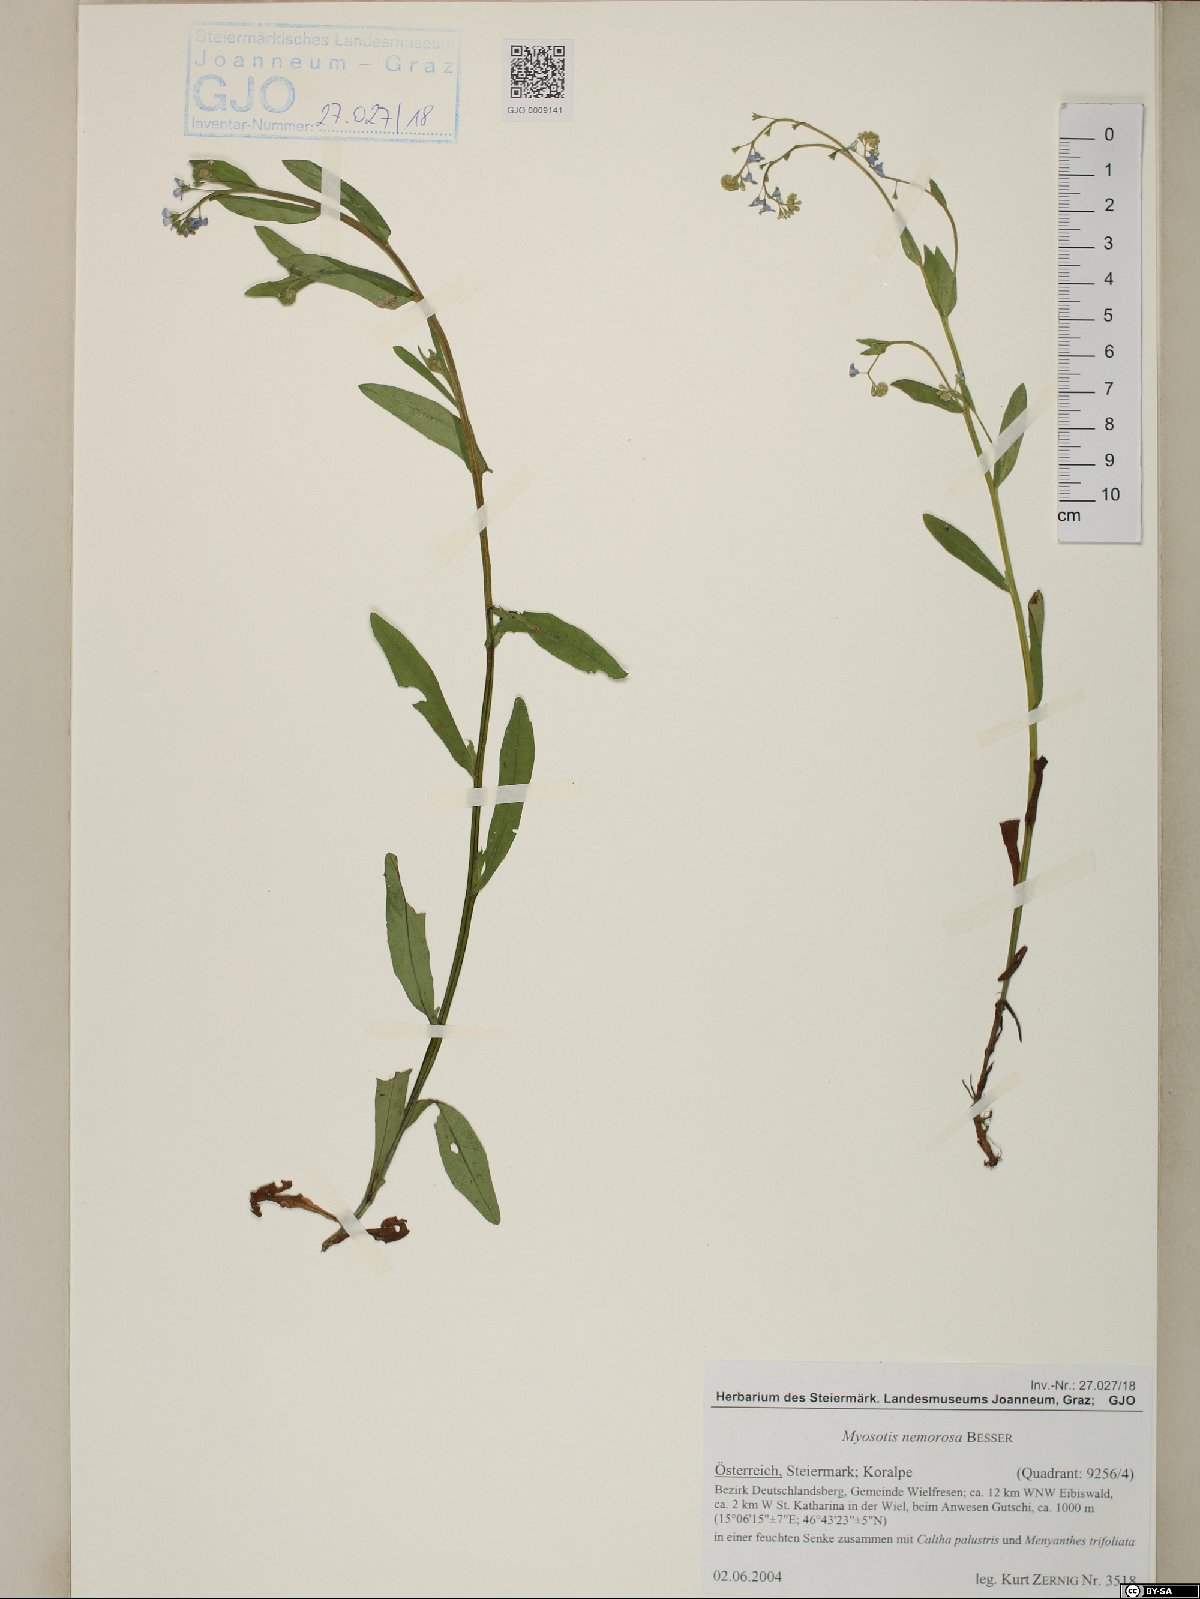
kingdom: Plantae
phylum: Tracheophyta
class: Magnoliopsida
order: Boraginales
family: Boraginaceae
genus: Myosotis
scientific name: Myosotis nemorosa
